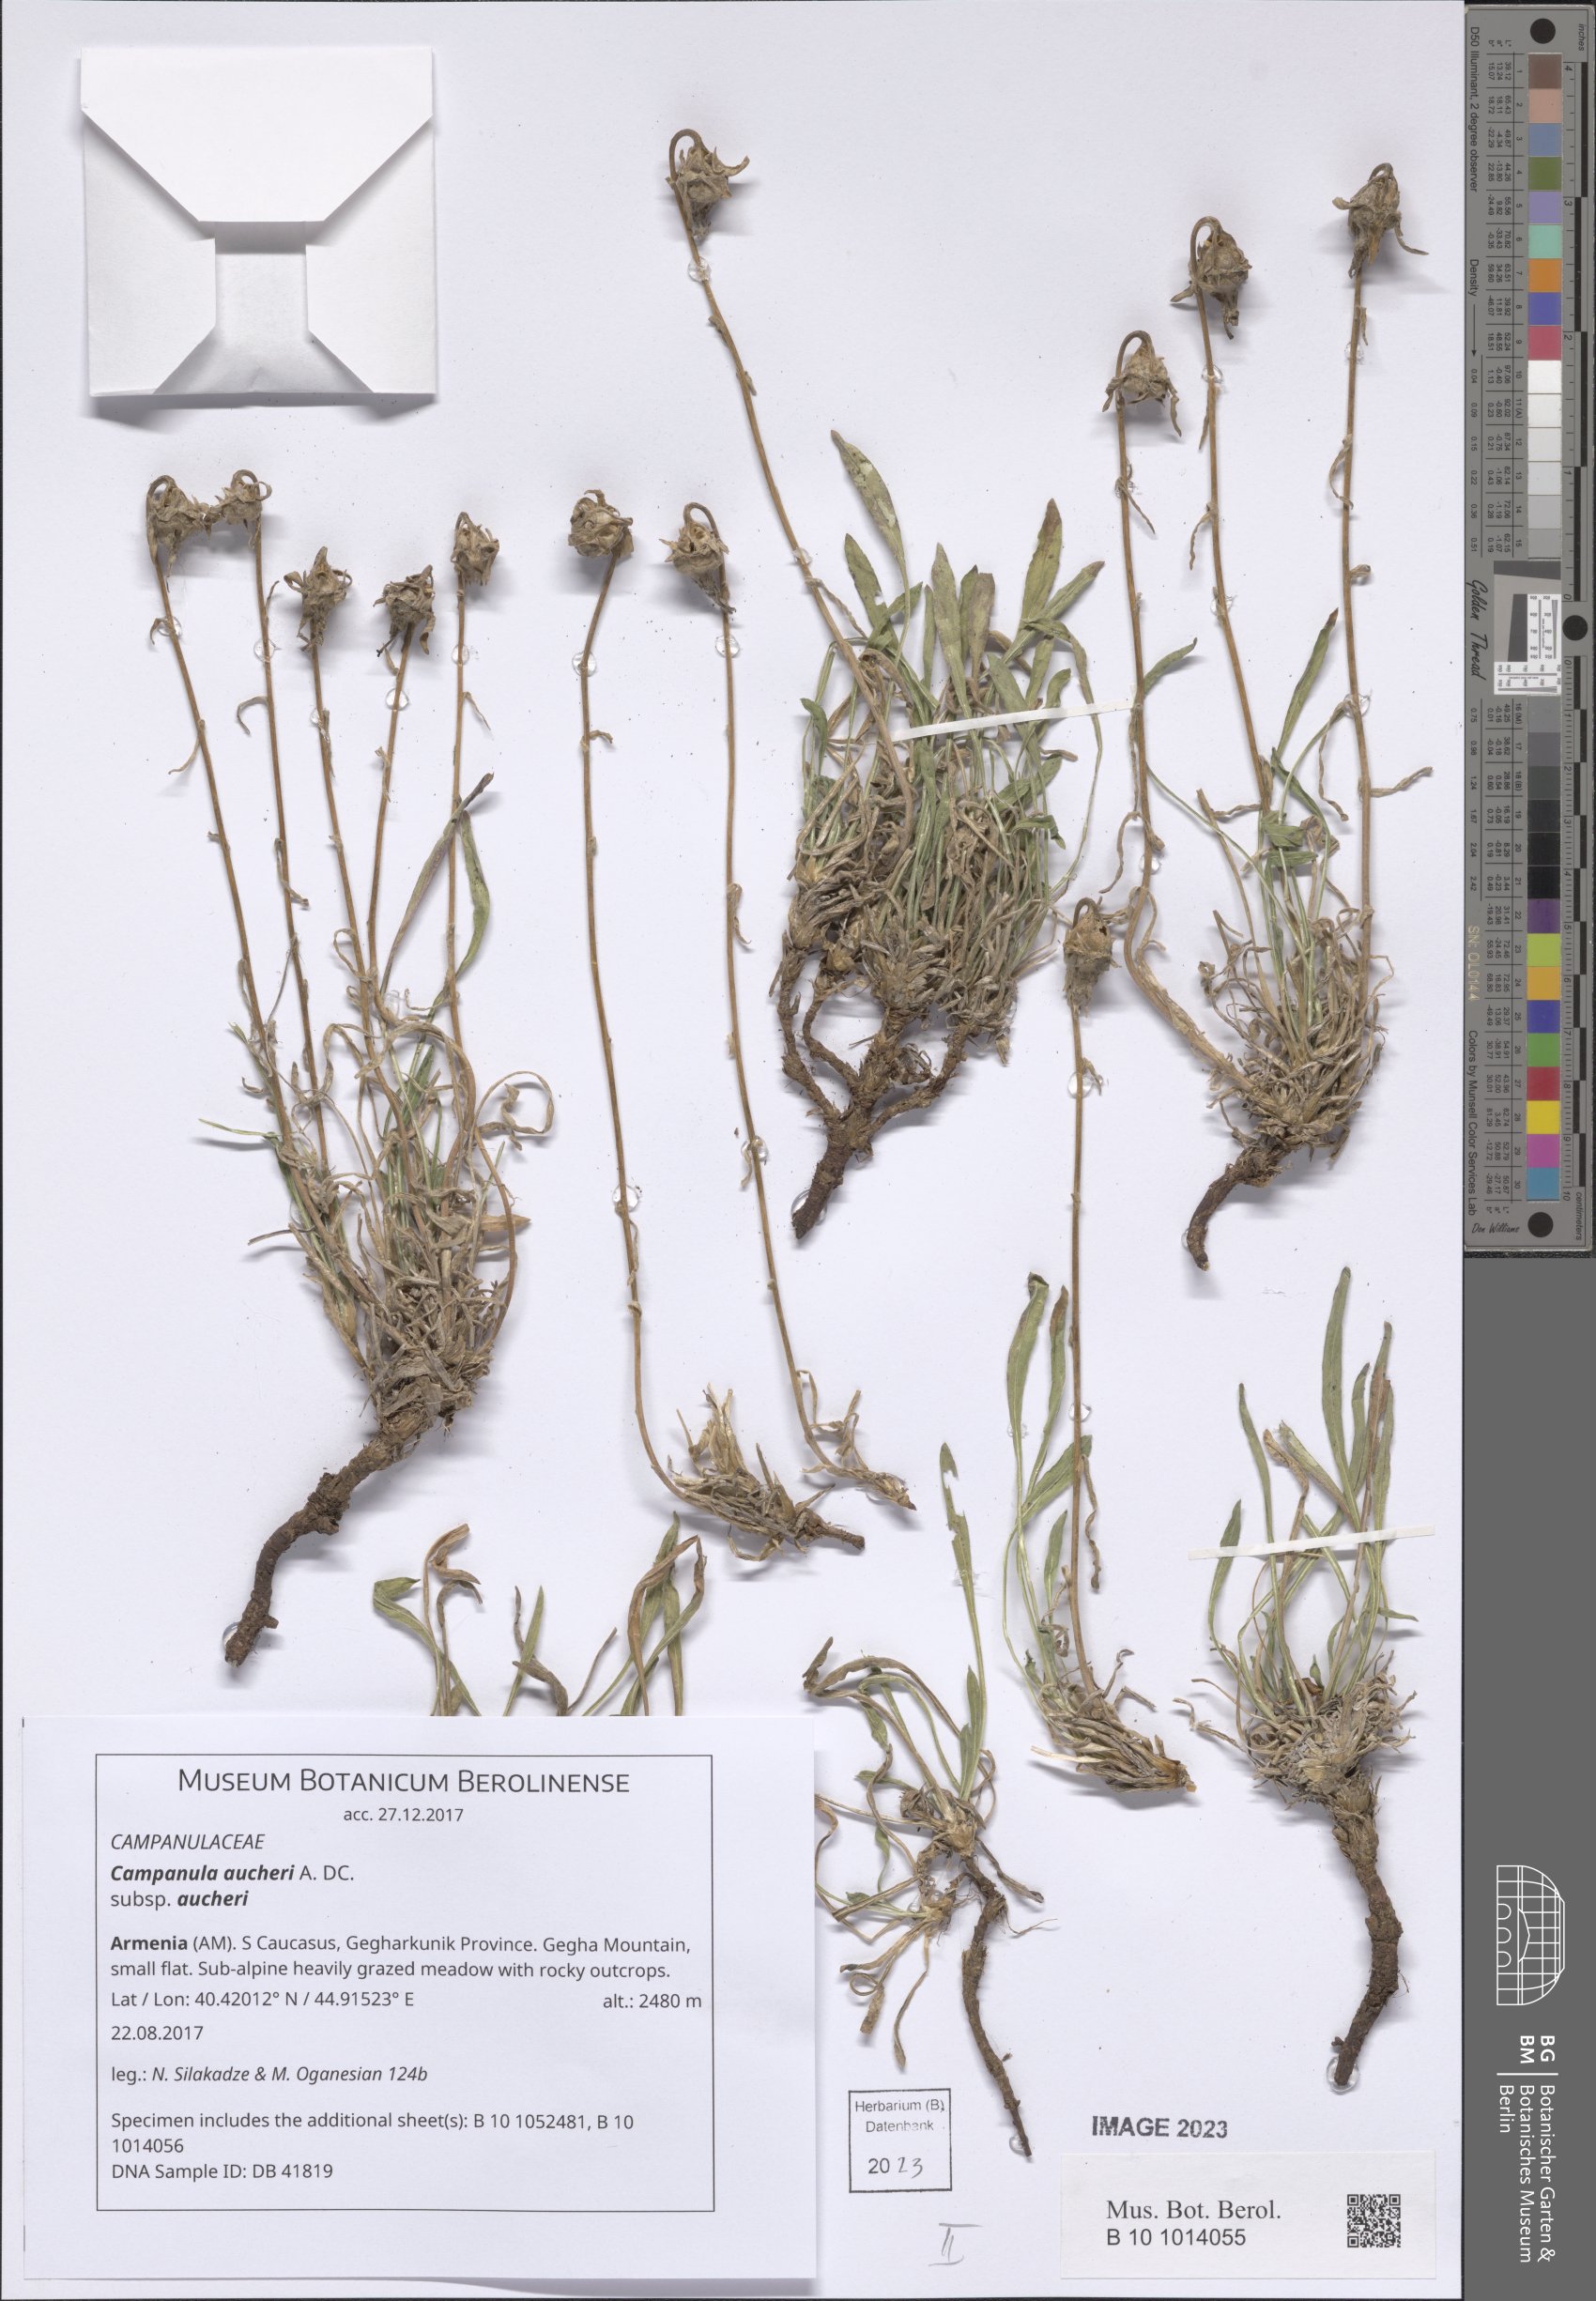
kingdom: Plantae
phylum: Tracheophyta
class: Magnoliopsida
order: Asterales
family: Campanulaceae
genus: Campanula
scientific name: Campanula saxifraga
